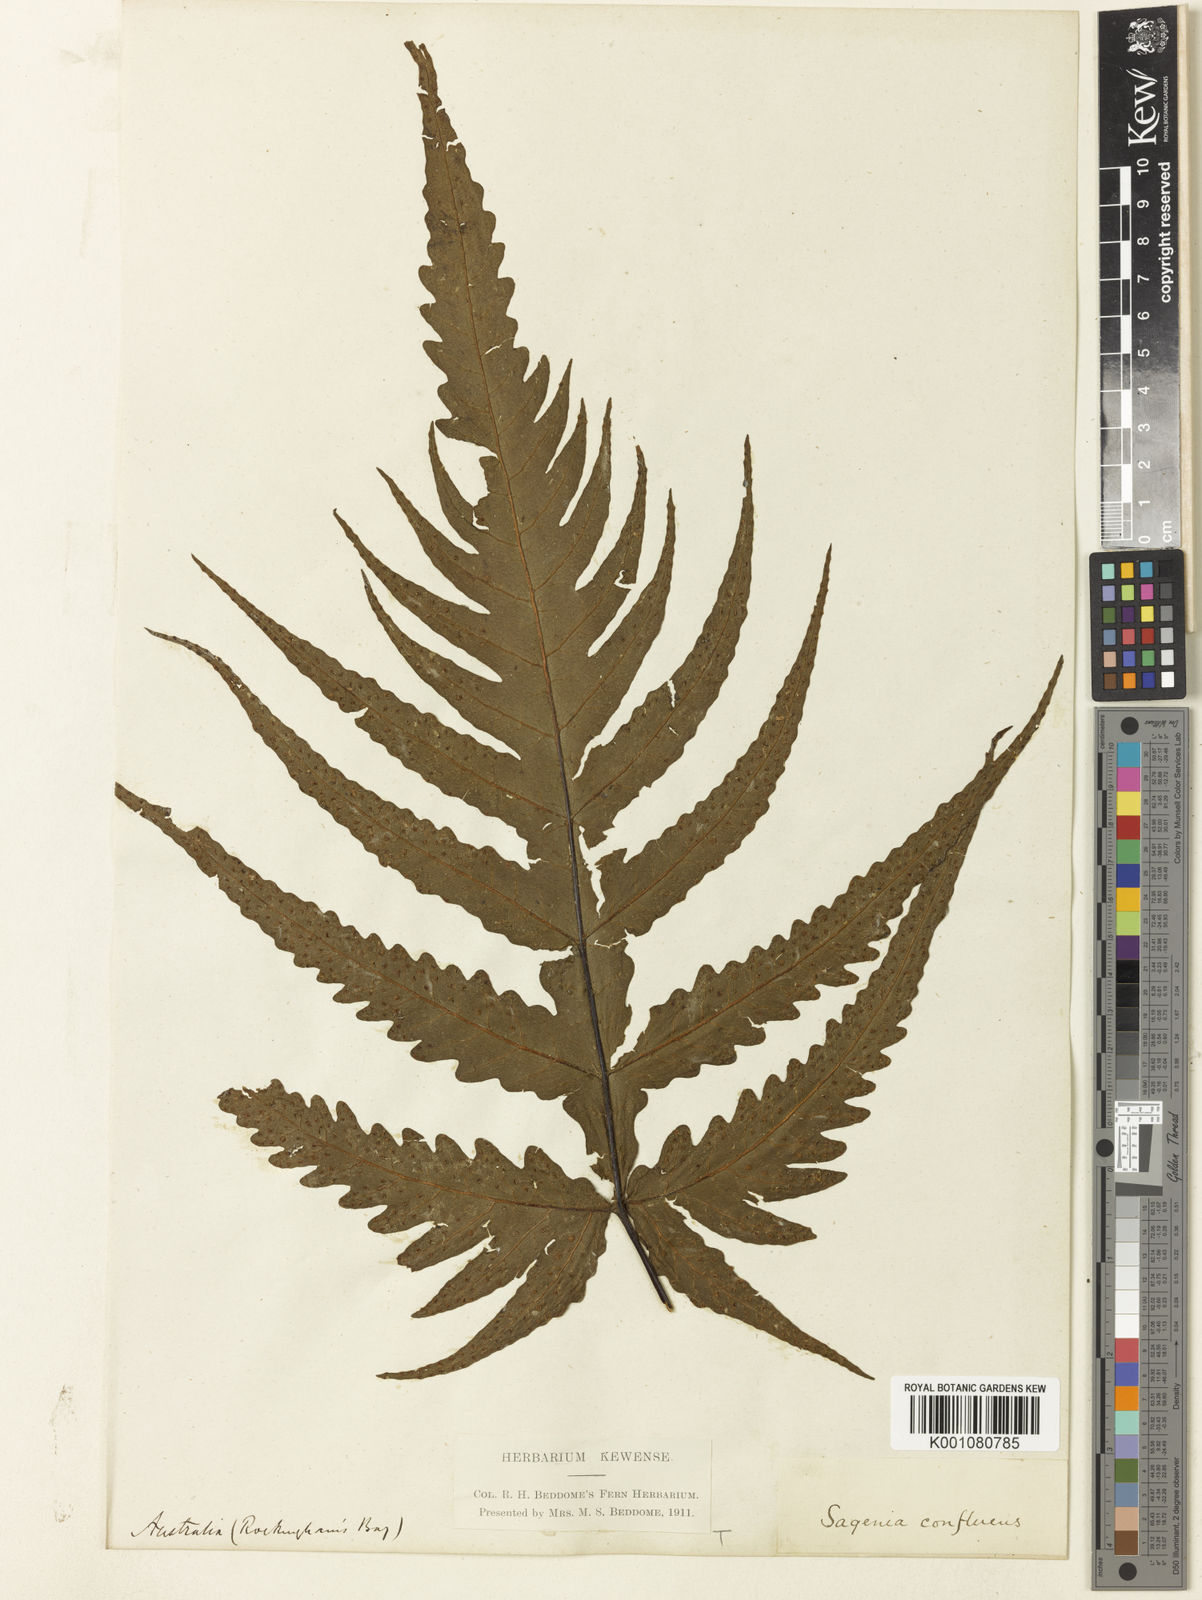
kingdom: Plantae
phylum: Tracheophyta
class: Polypodiopsida
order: Polypodiales
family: Tectariaceae
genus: Tectaria
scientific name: Tectaria confluens
